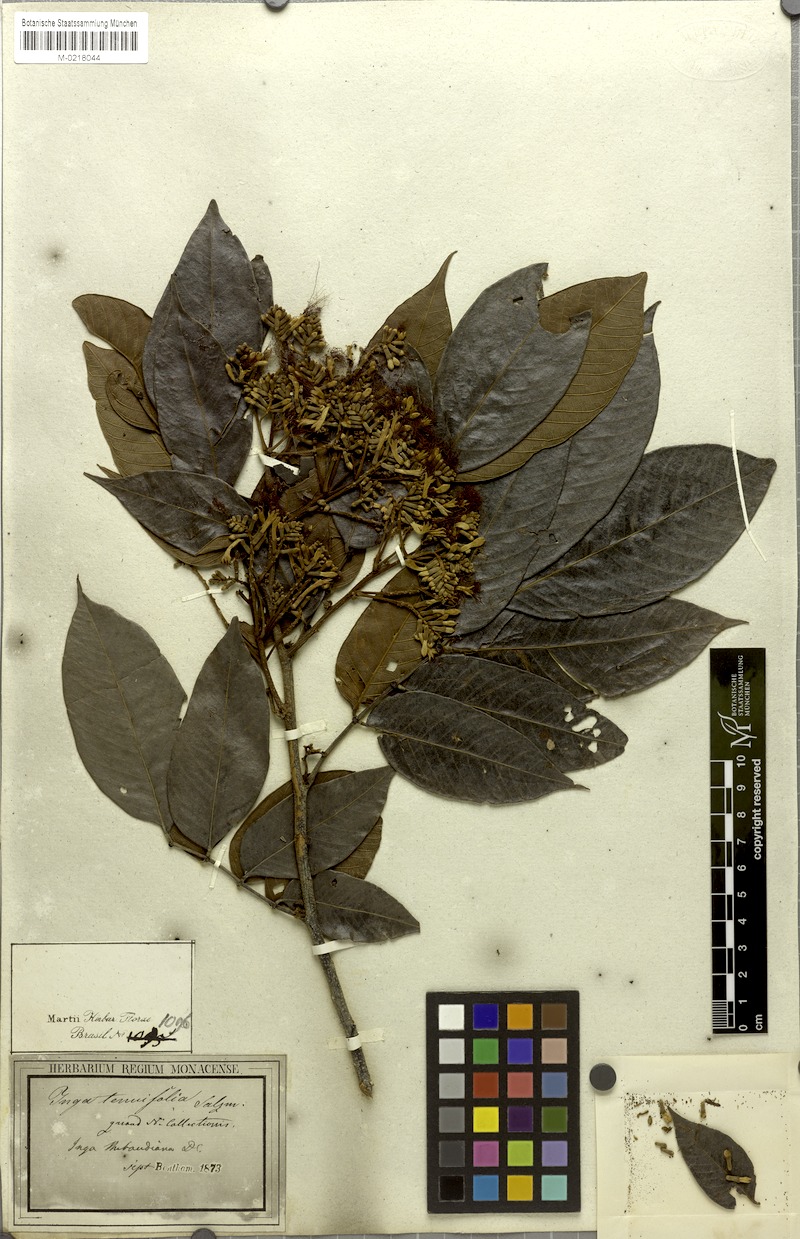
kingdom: Plantae
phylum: Tracheophyta
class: Magnoliopsida
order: Fabales
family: Fabaceae
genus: Inga
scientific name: Inga thibaudiana
